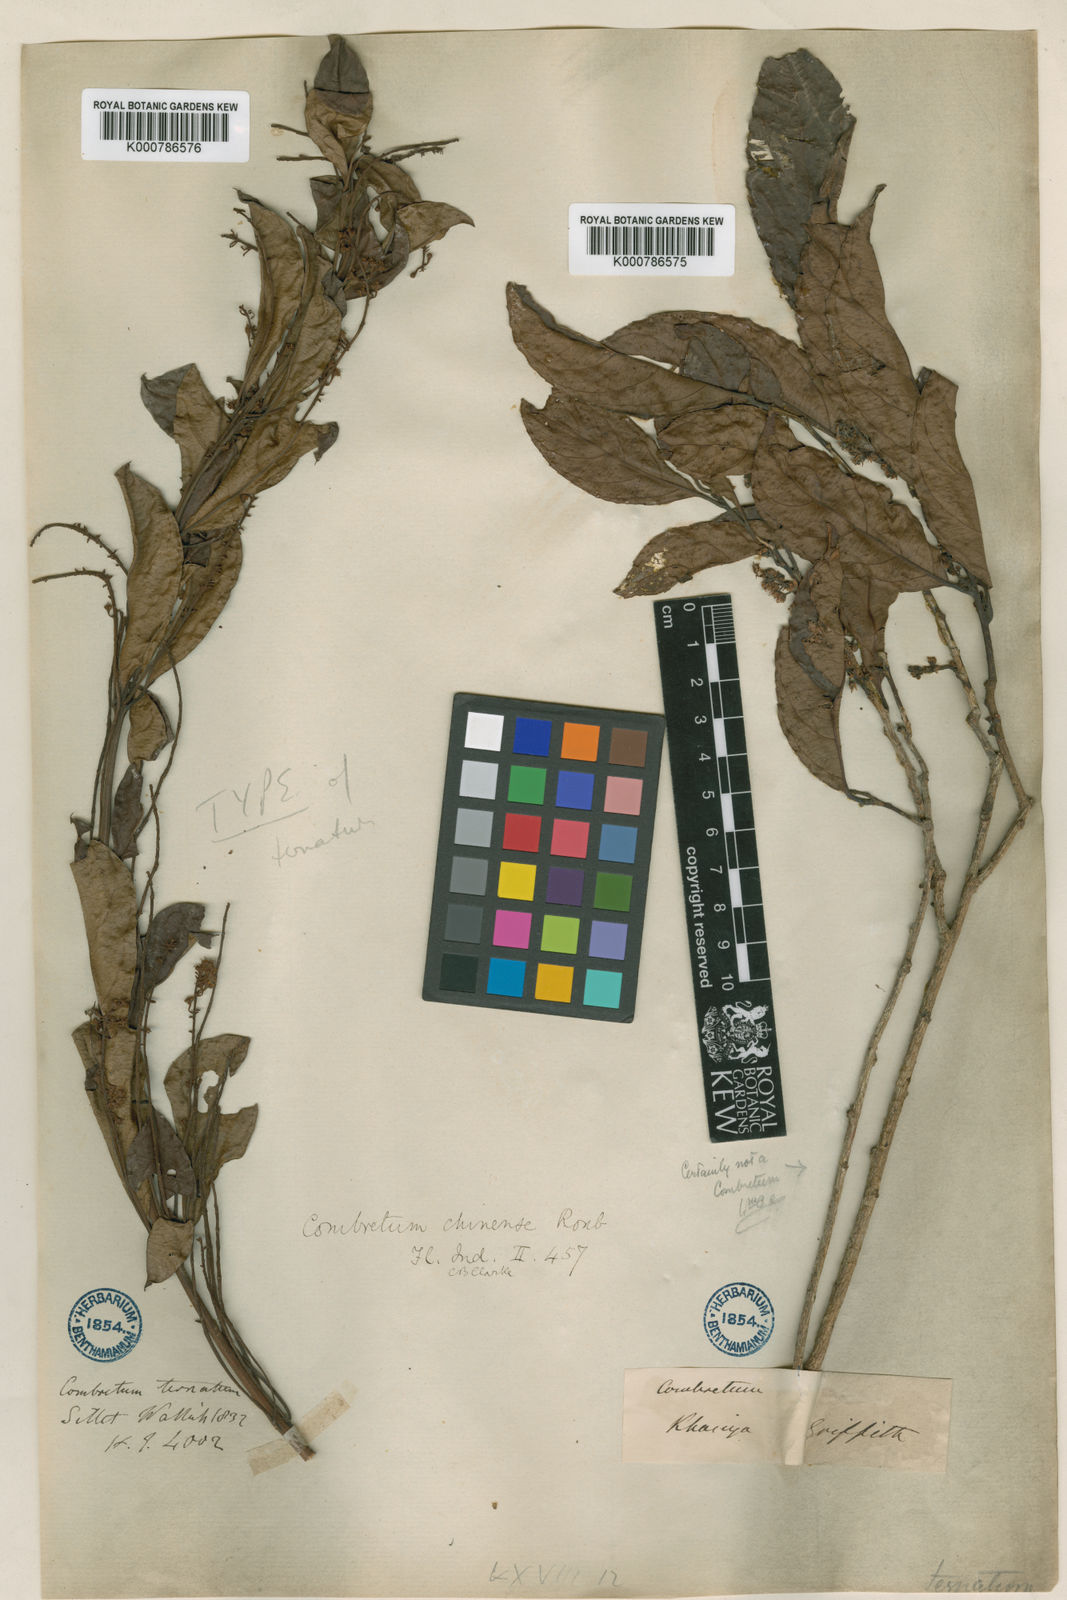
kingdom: Plantae
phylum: Tracheophyta
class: Magnoliopsida
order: Myrtales
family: Combretaceae
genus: Combretum
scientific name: Combretum griffithii
